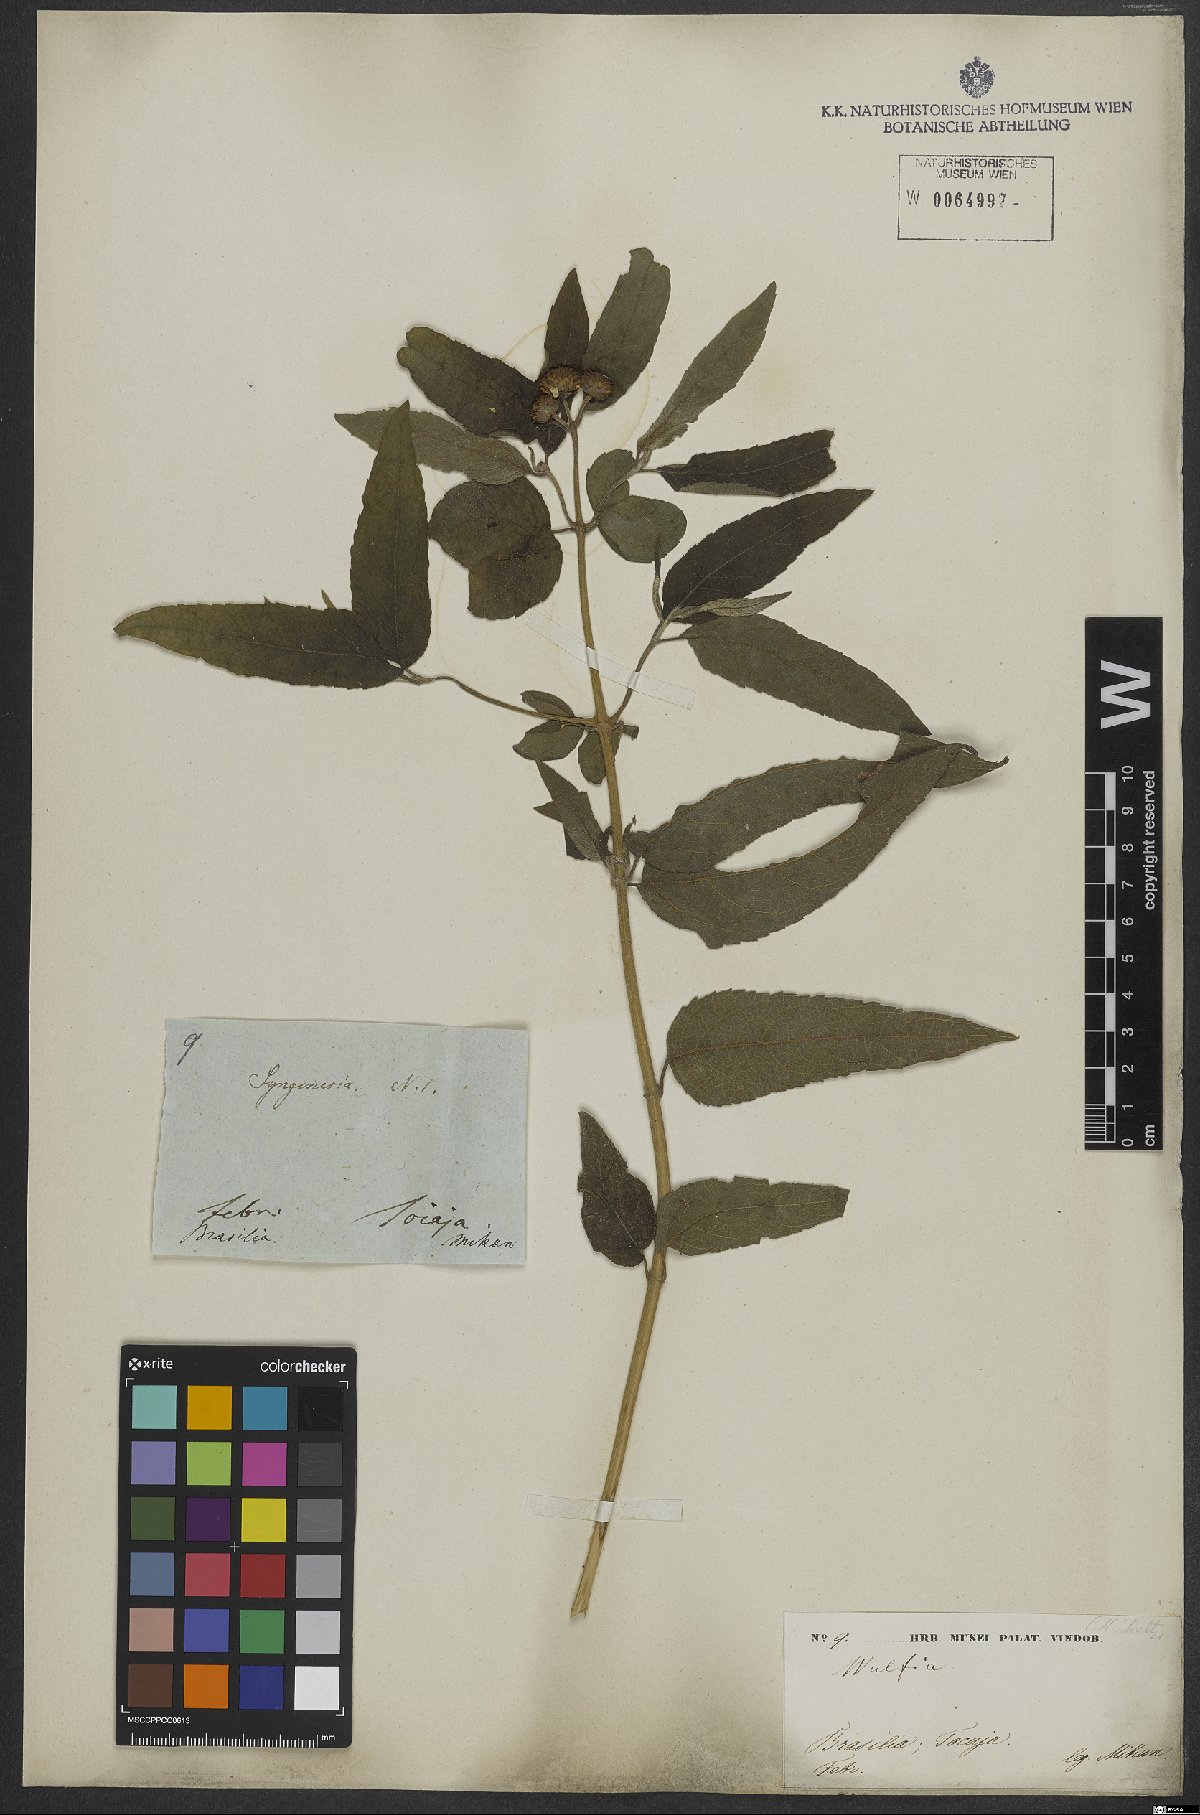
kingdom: Plantae
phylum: Tracheophyta
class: Magnoliopsida
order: Asterales
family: Asteraceae
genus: Tilesia
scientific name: Tilesia
